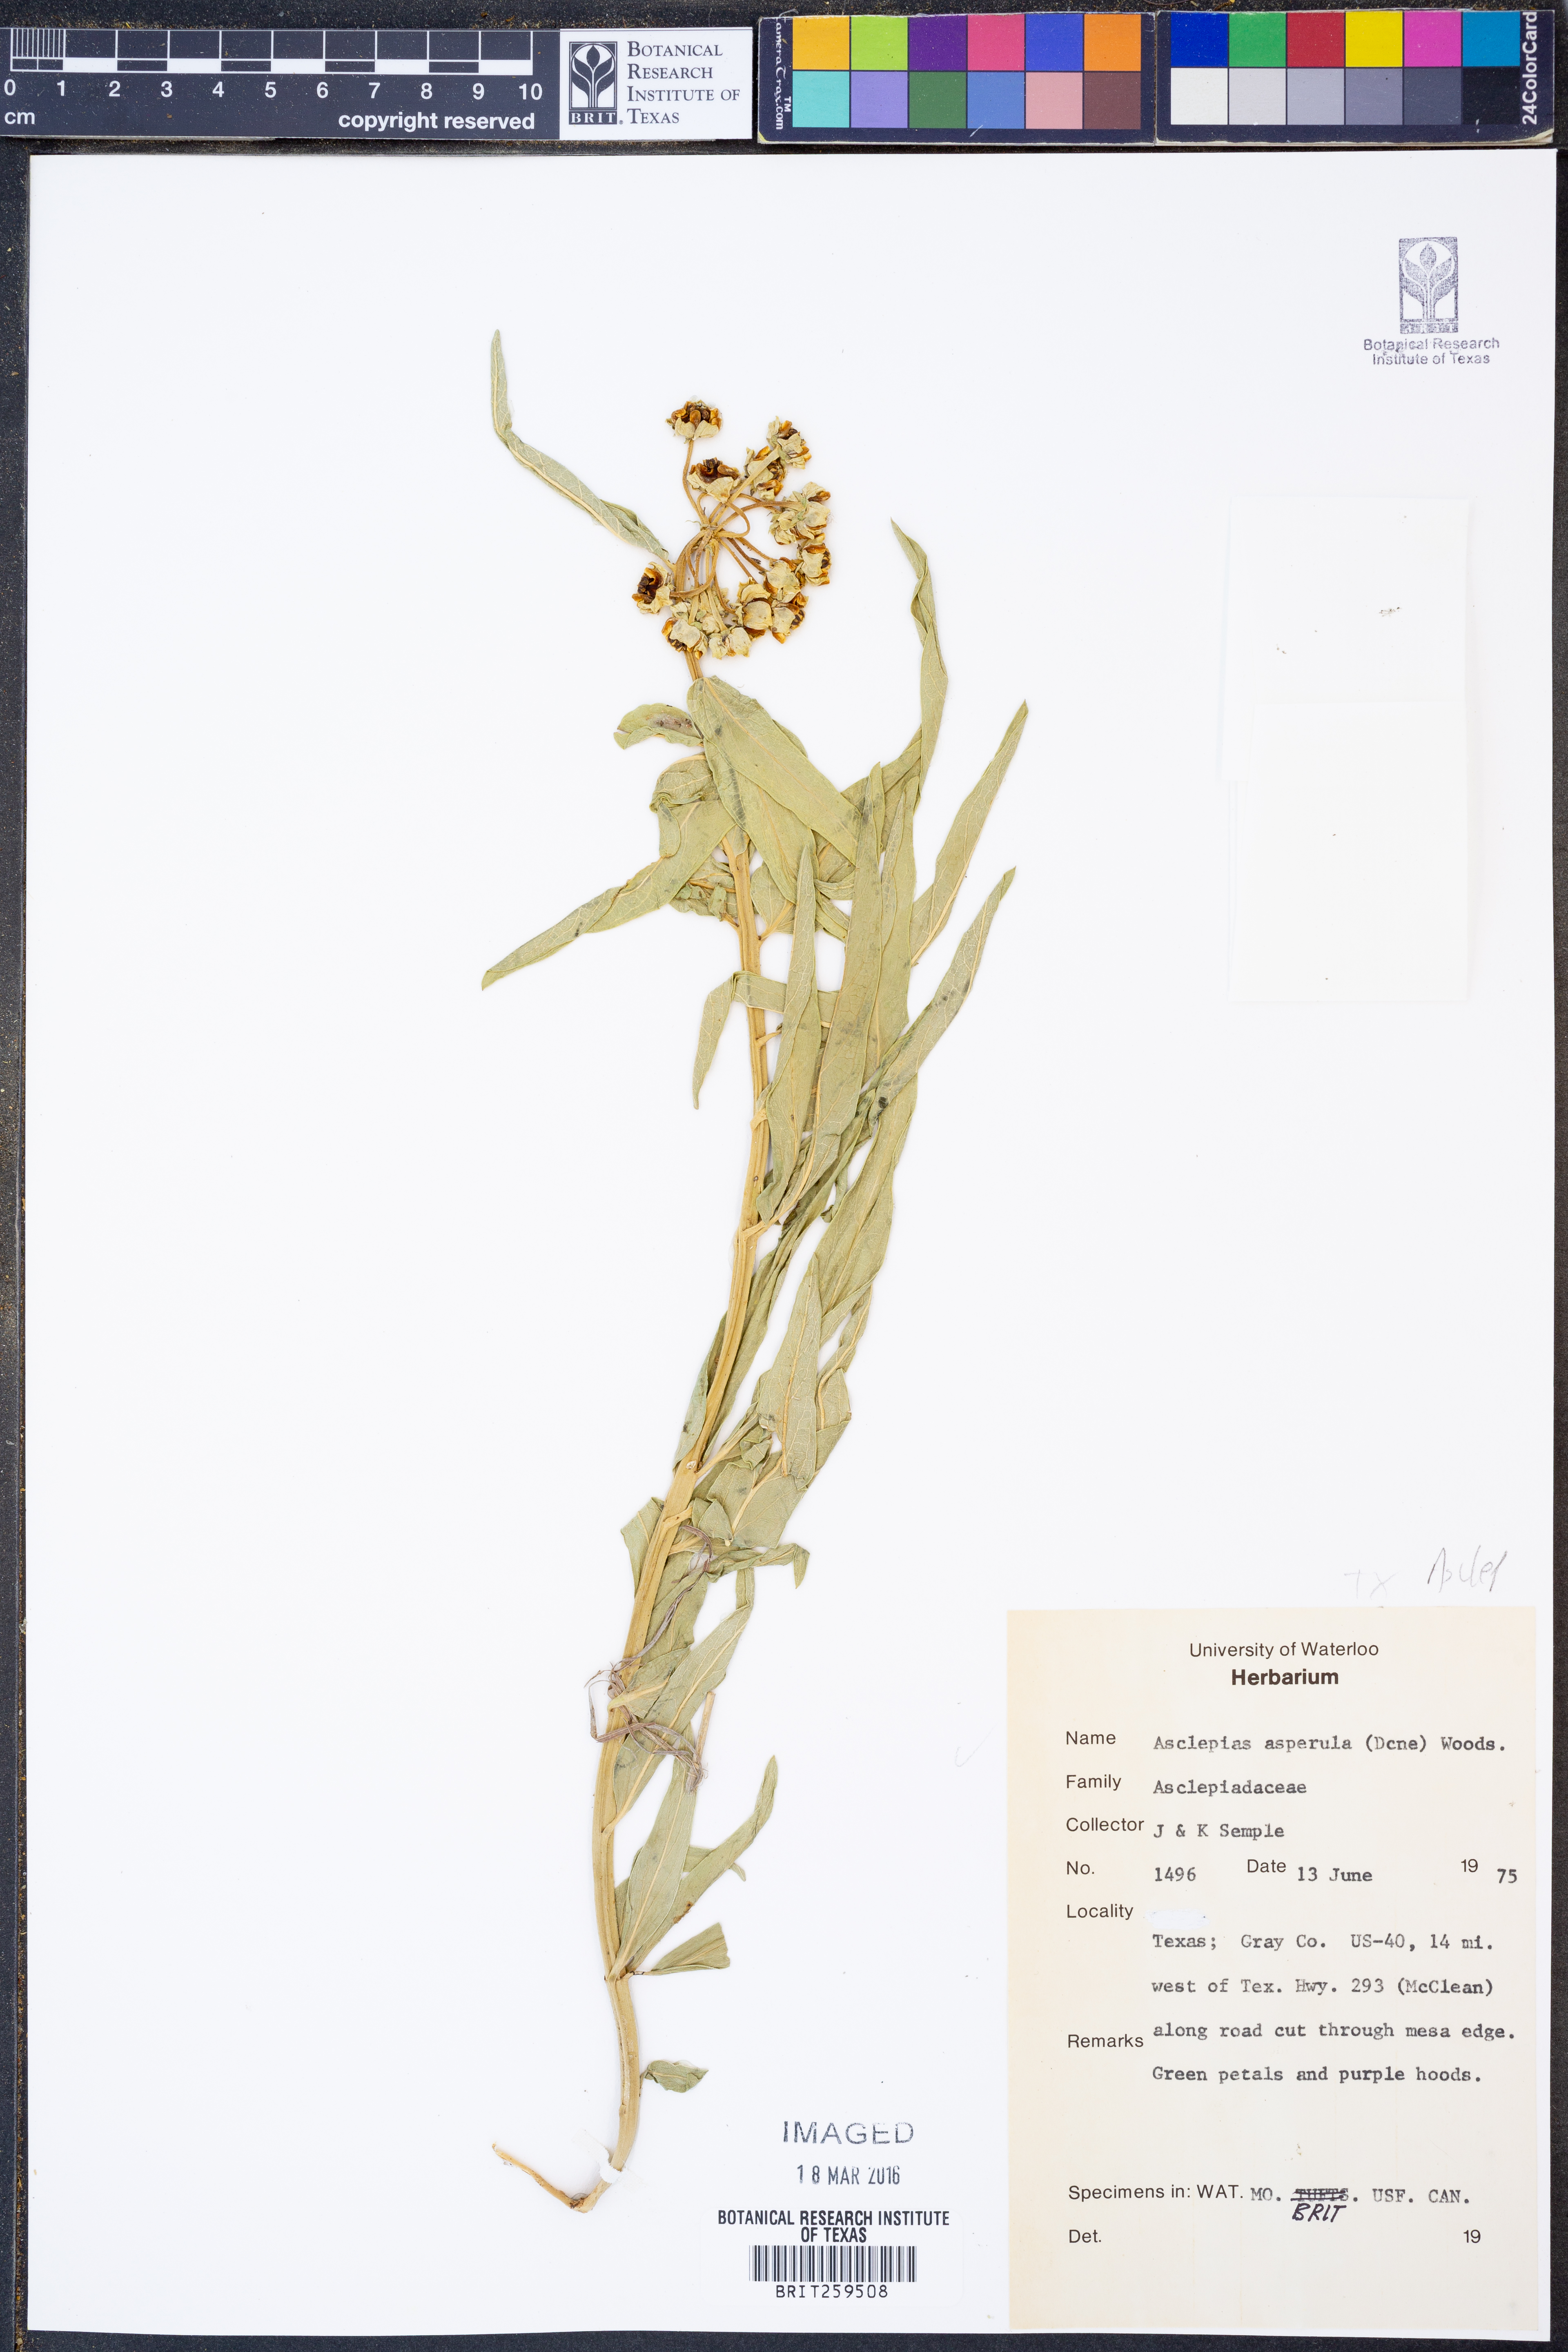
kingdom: Plantae
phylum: Tracheophyta
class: Magnoliopsida
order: Gentianales
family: Apocynaceae
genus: Asclepias
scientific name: Asclepias asperula
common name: Antelope horns
